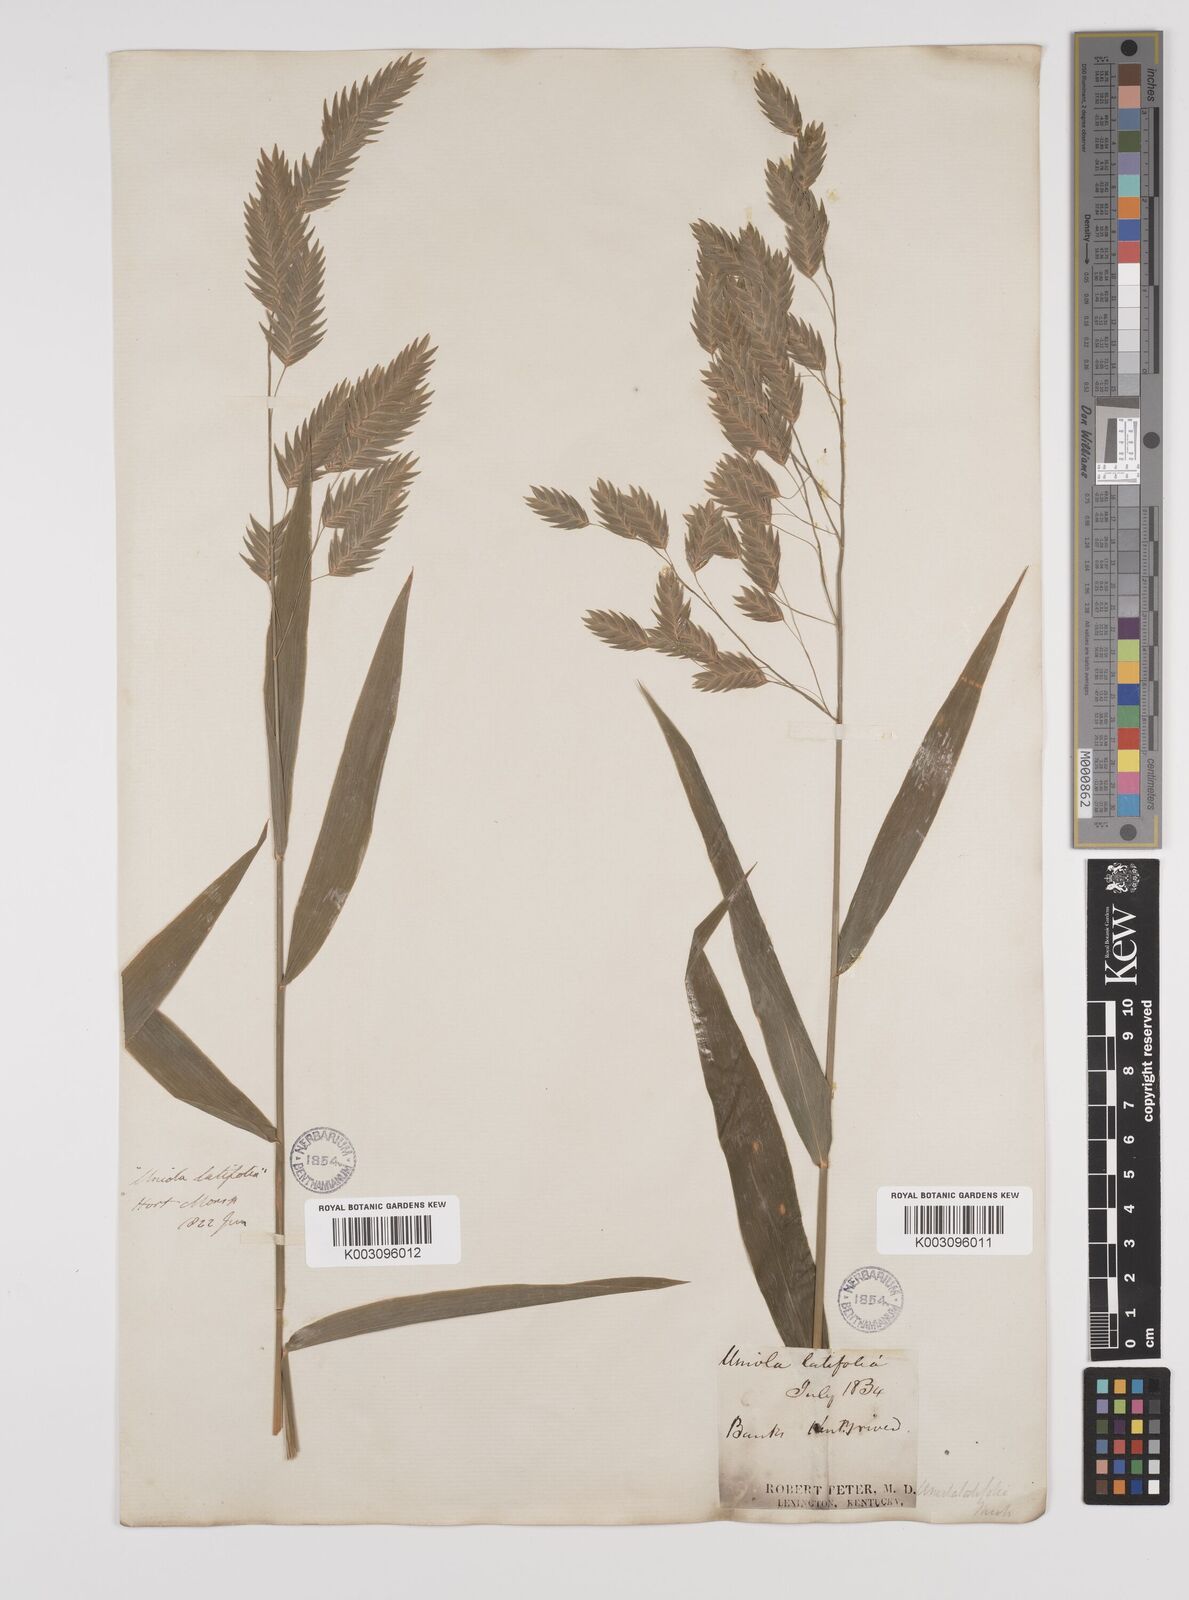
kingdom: Plantae
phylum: Tracheophyta
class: Liliopsida
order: Poales
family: Poaceae
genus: Chasmanthium
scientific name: Chasmanthium latifolium
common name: Broad-leaved chasmanthium
